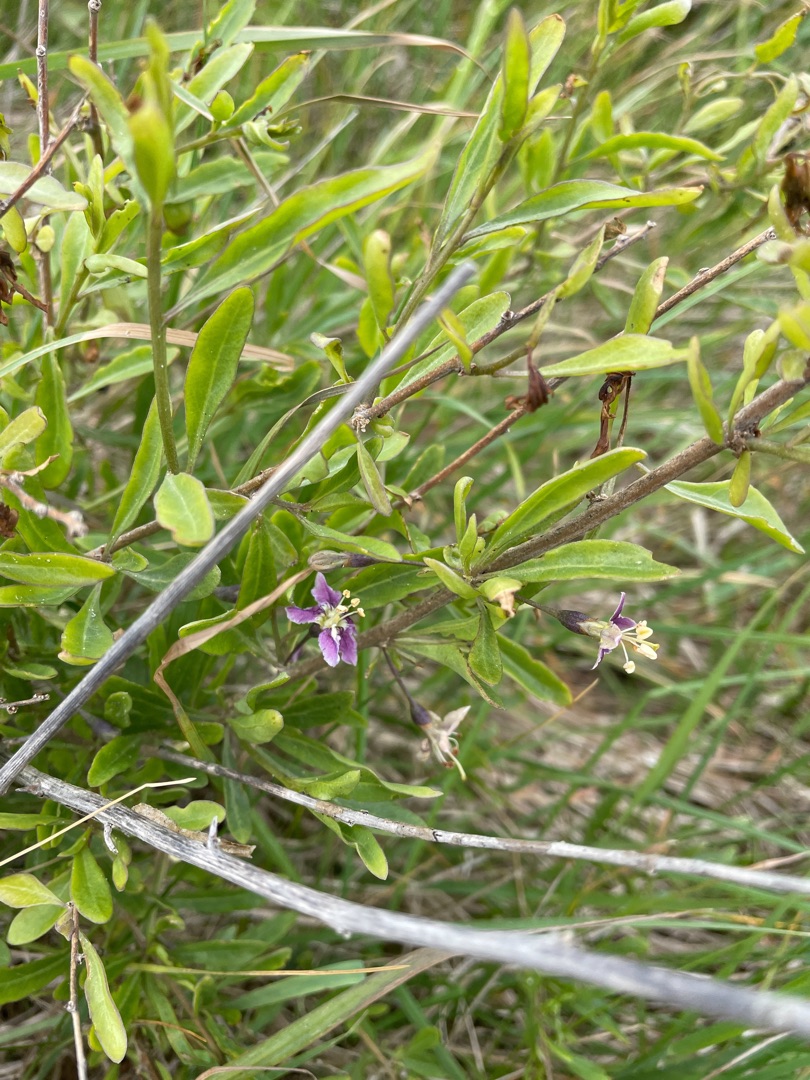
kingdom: Plantae
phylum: Tracheophyta
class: Magnoliopsida
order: Solanales
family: Solanaceae
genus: Lycium
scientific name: Lycium barbarum
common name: Bukketorn
